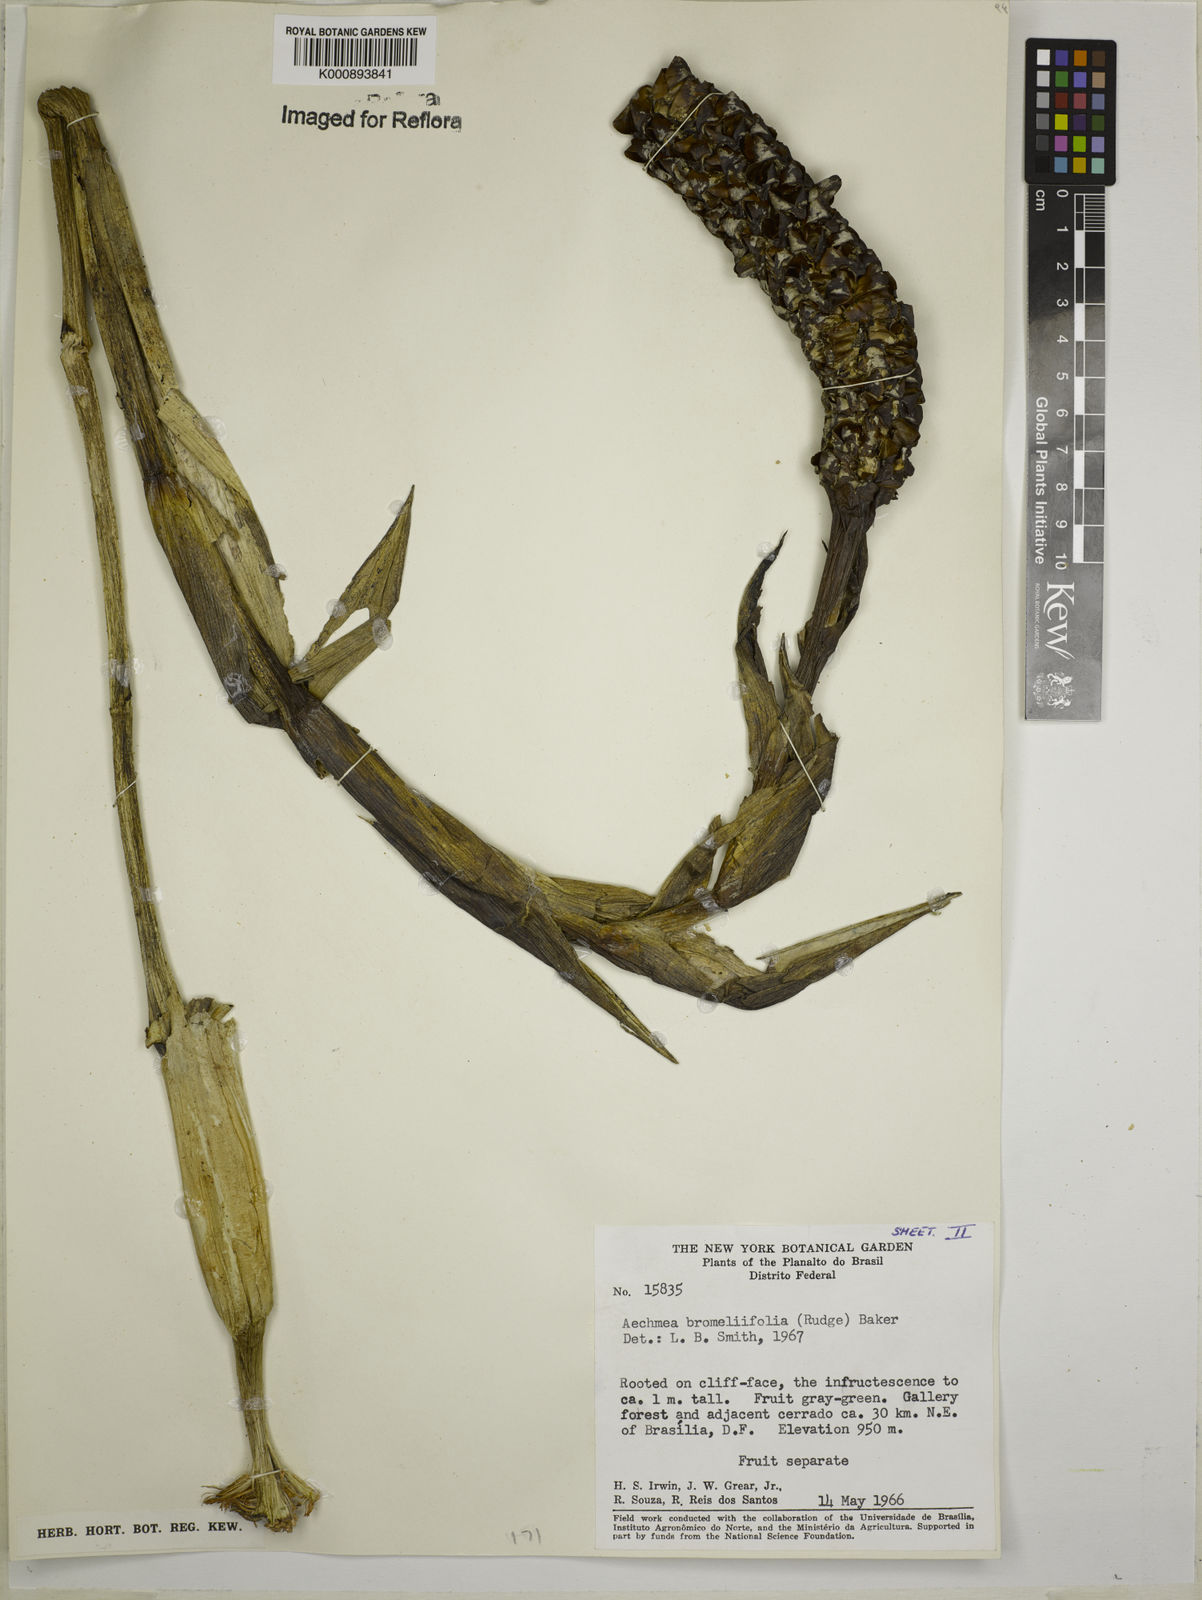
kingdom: Plantae
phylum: Tracheophyta
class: Liliopsida
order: Poales
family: Bromeliaceae
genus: Aechmea
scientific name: Aechmea
